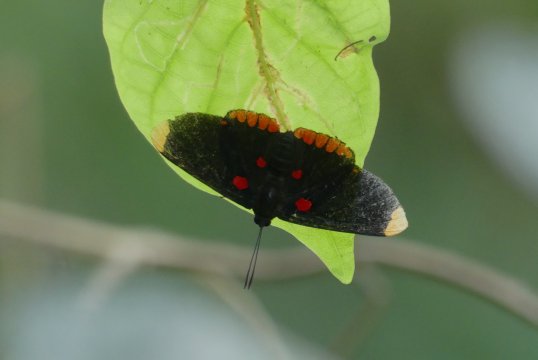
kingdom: Animalia
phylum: Arthropoda
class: Insecta
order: Lepidoptera
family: Lycaenidae
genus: Melanis
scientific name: Melanis pixe
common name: Red-bordered Pixie
